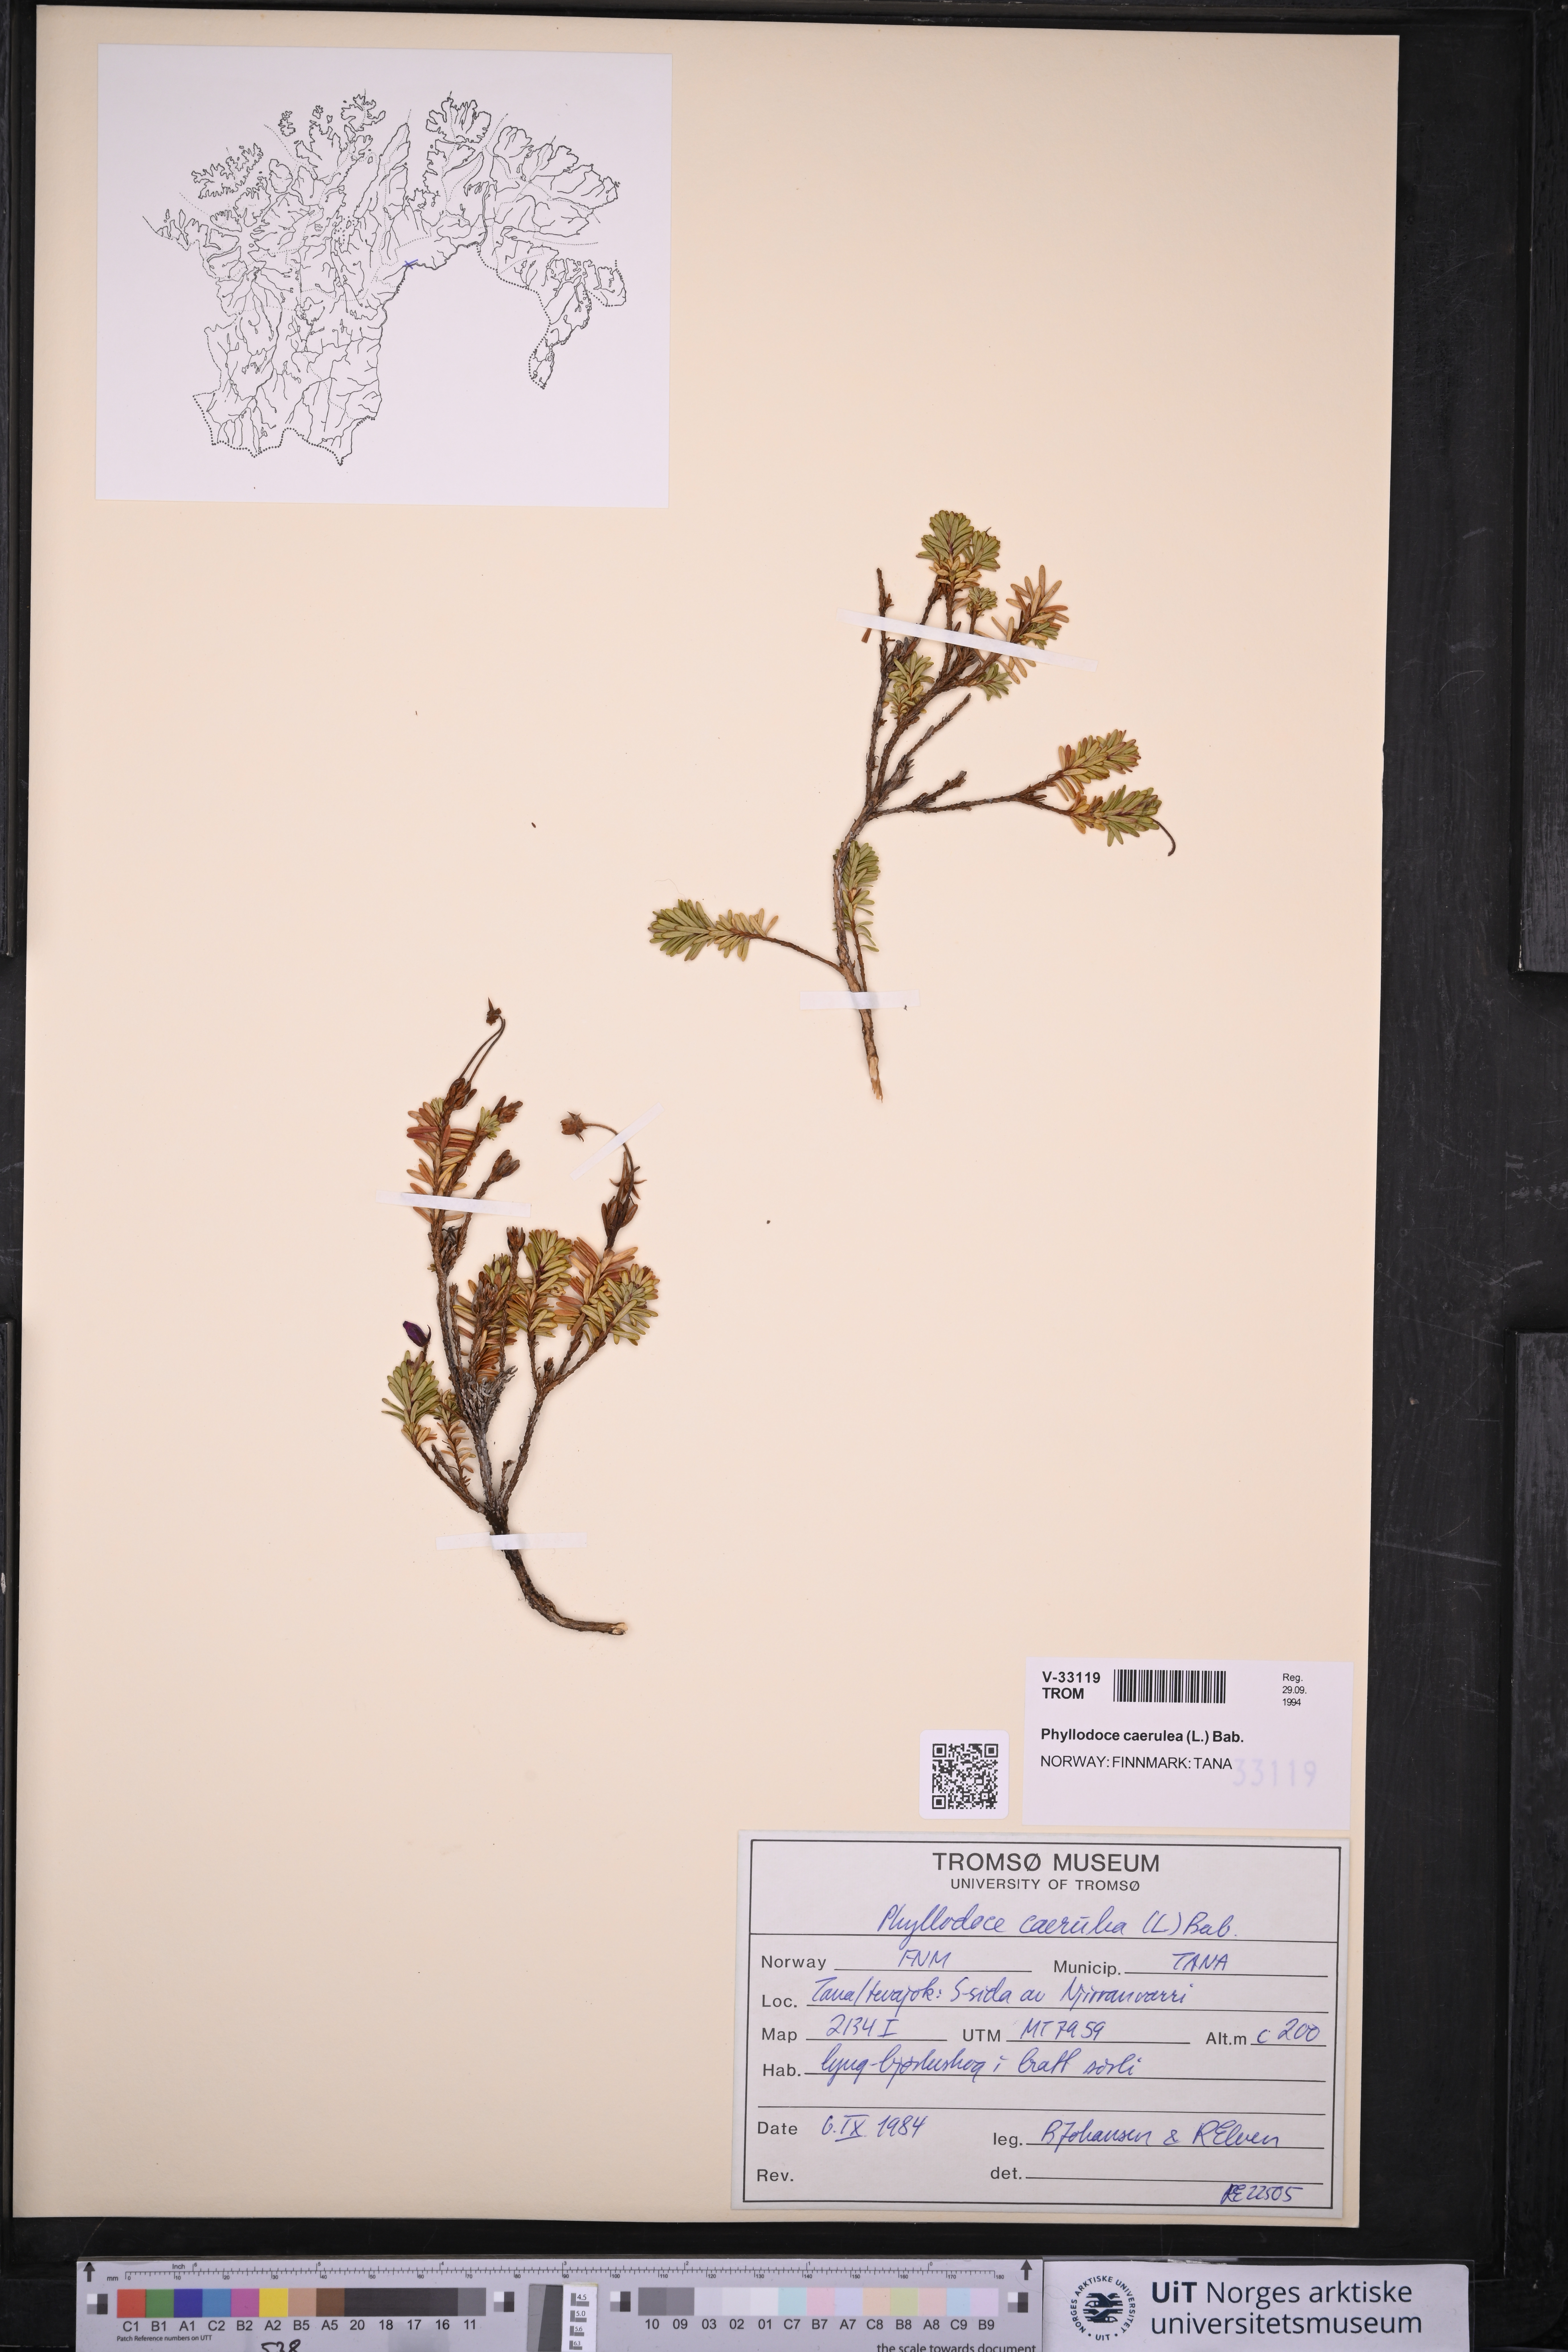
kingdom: Plantae
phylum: Tracheophyta
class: Magnoliopsida
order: Ericales
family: Ericaceae
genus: Phyllodoce
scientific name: Phyllodoce caerulea
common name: Blue heath
